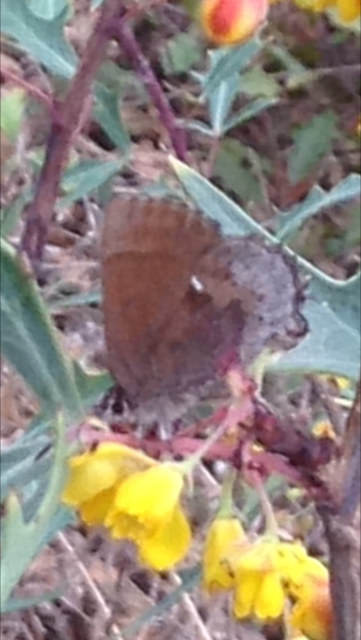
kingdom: Animalia
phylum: Arthropoda
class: Insecta
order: Lepidoptera
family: Lycaenidae
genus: Incisalia
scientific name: Incisalia henrici
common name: Henry's Elfin
